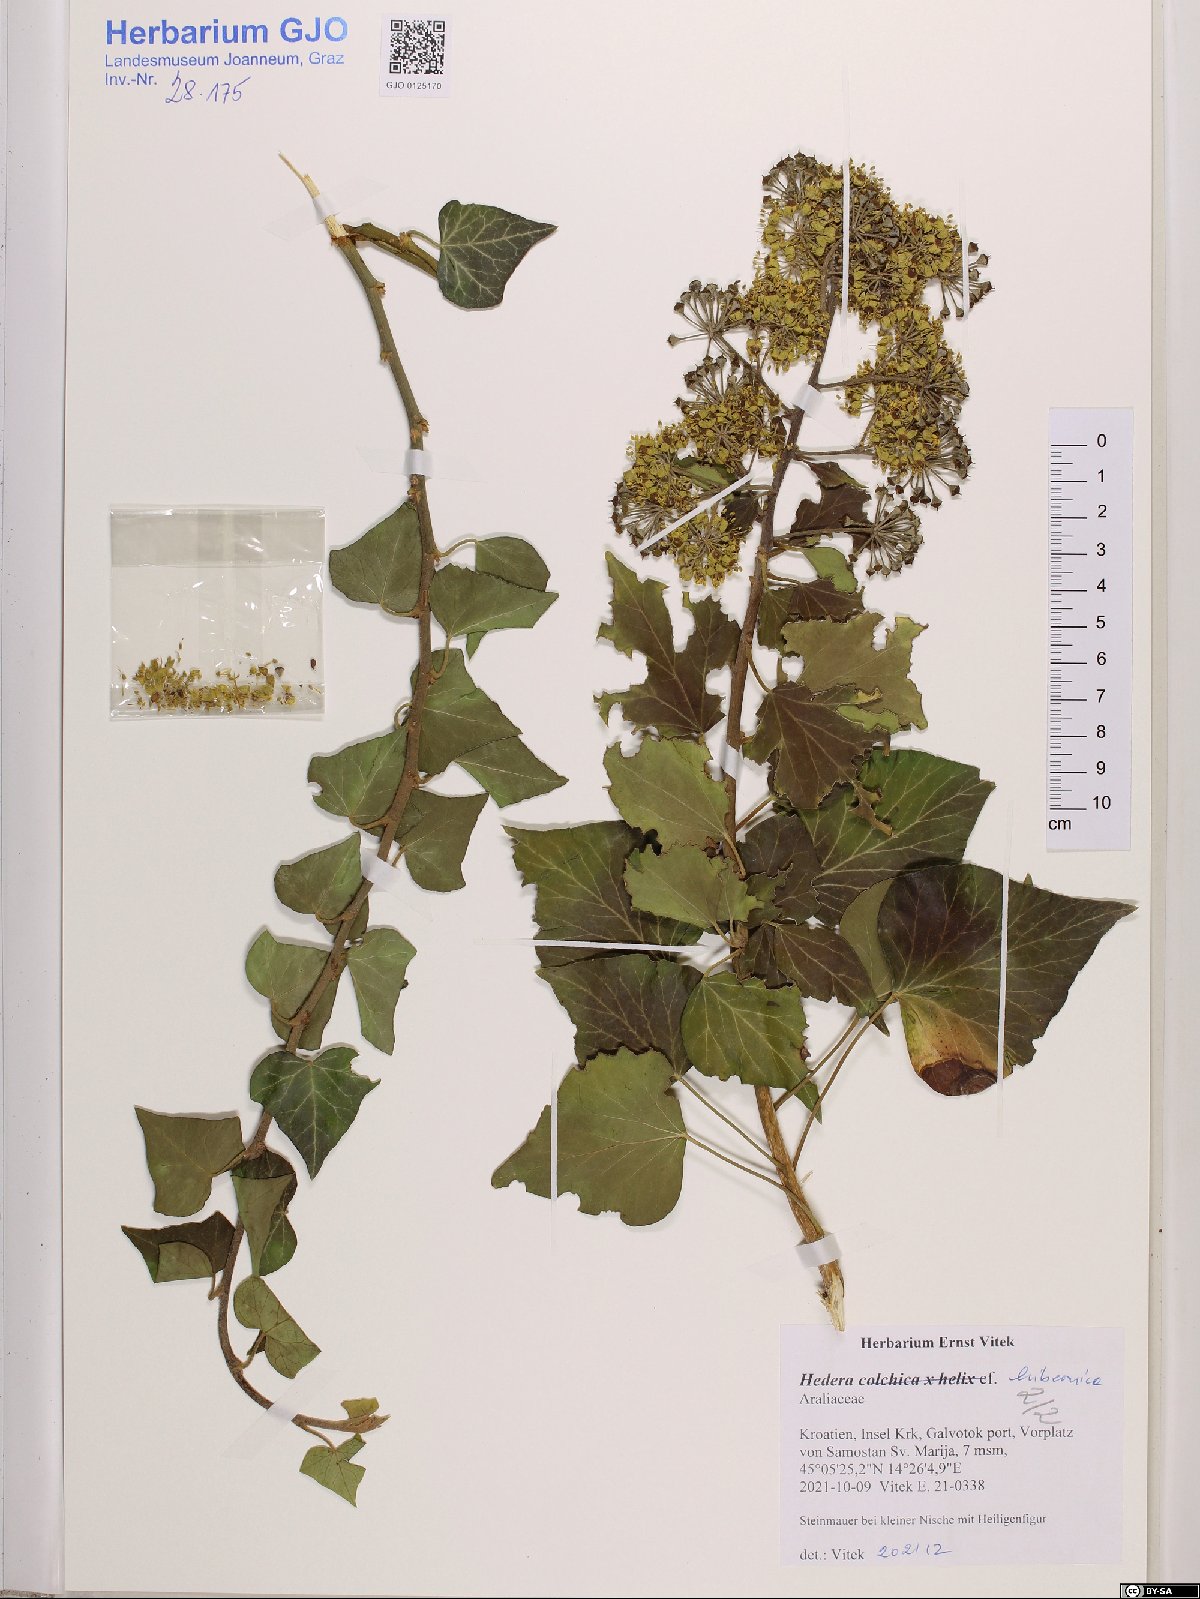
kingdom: Plantae
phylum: Tracheophyta
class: Magnoliopsida
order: Apiales
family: Araliaceae
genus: Hedera
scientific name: Hedera hibernica
